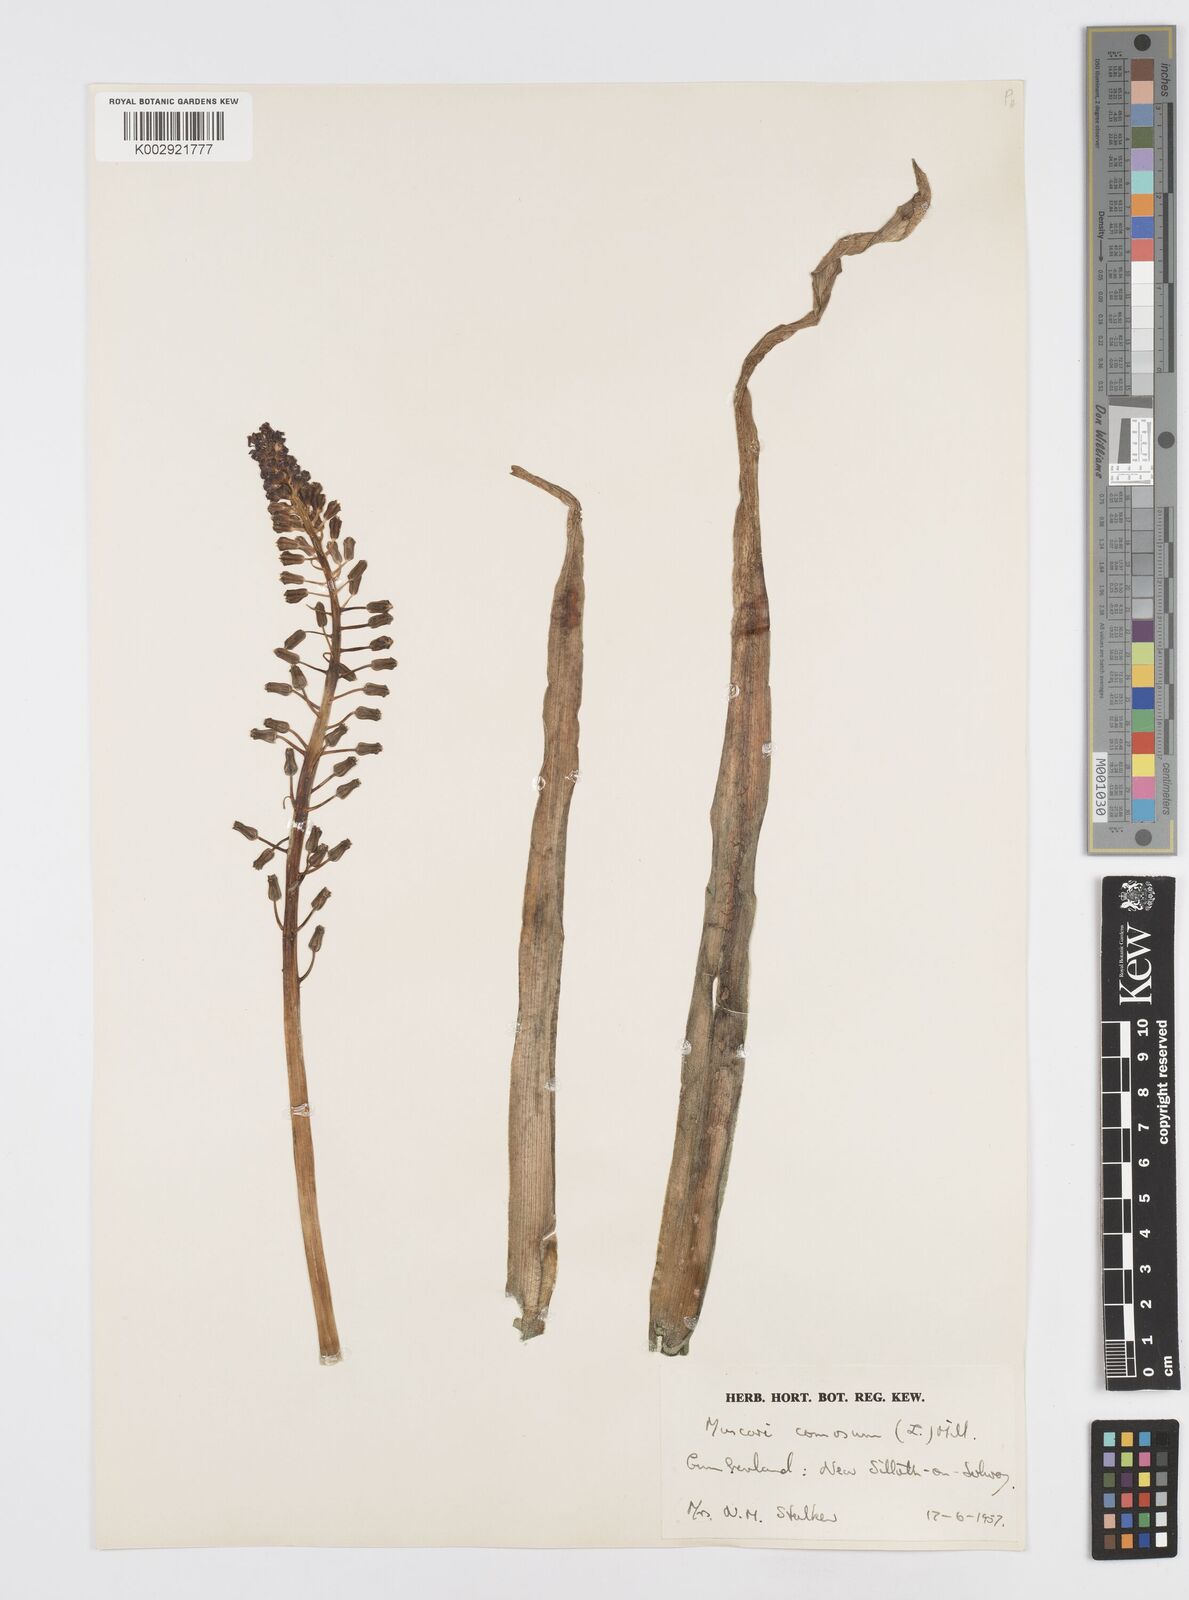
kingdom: Plantae
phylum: Tracheophyta
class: Liliopsida
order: Asparagales
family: Asparagaceae
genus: Muscari
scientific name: Muscari comosum
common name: Tassel hyacinth
